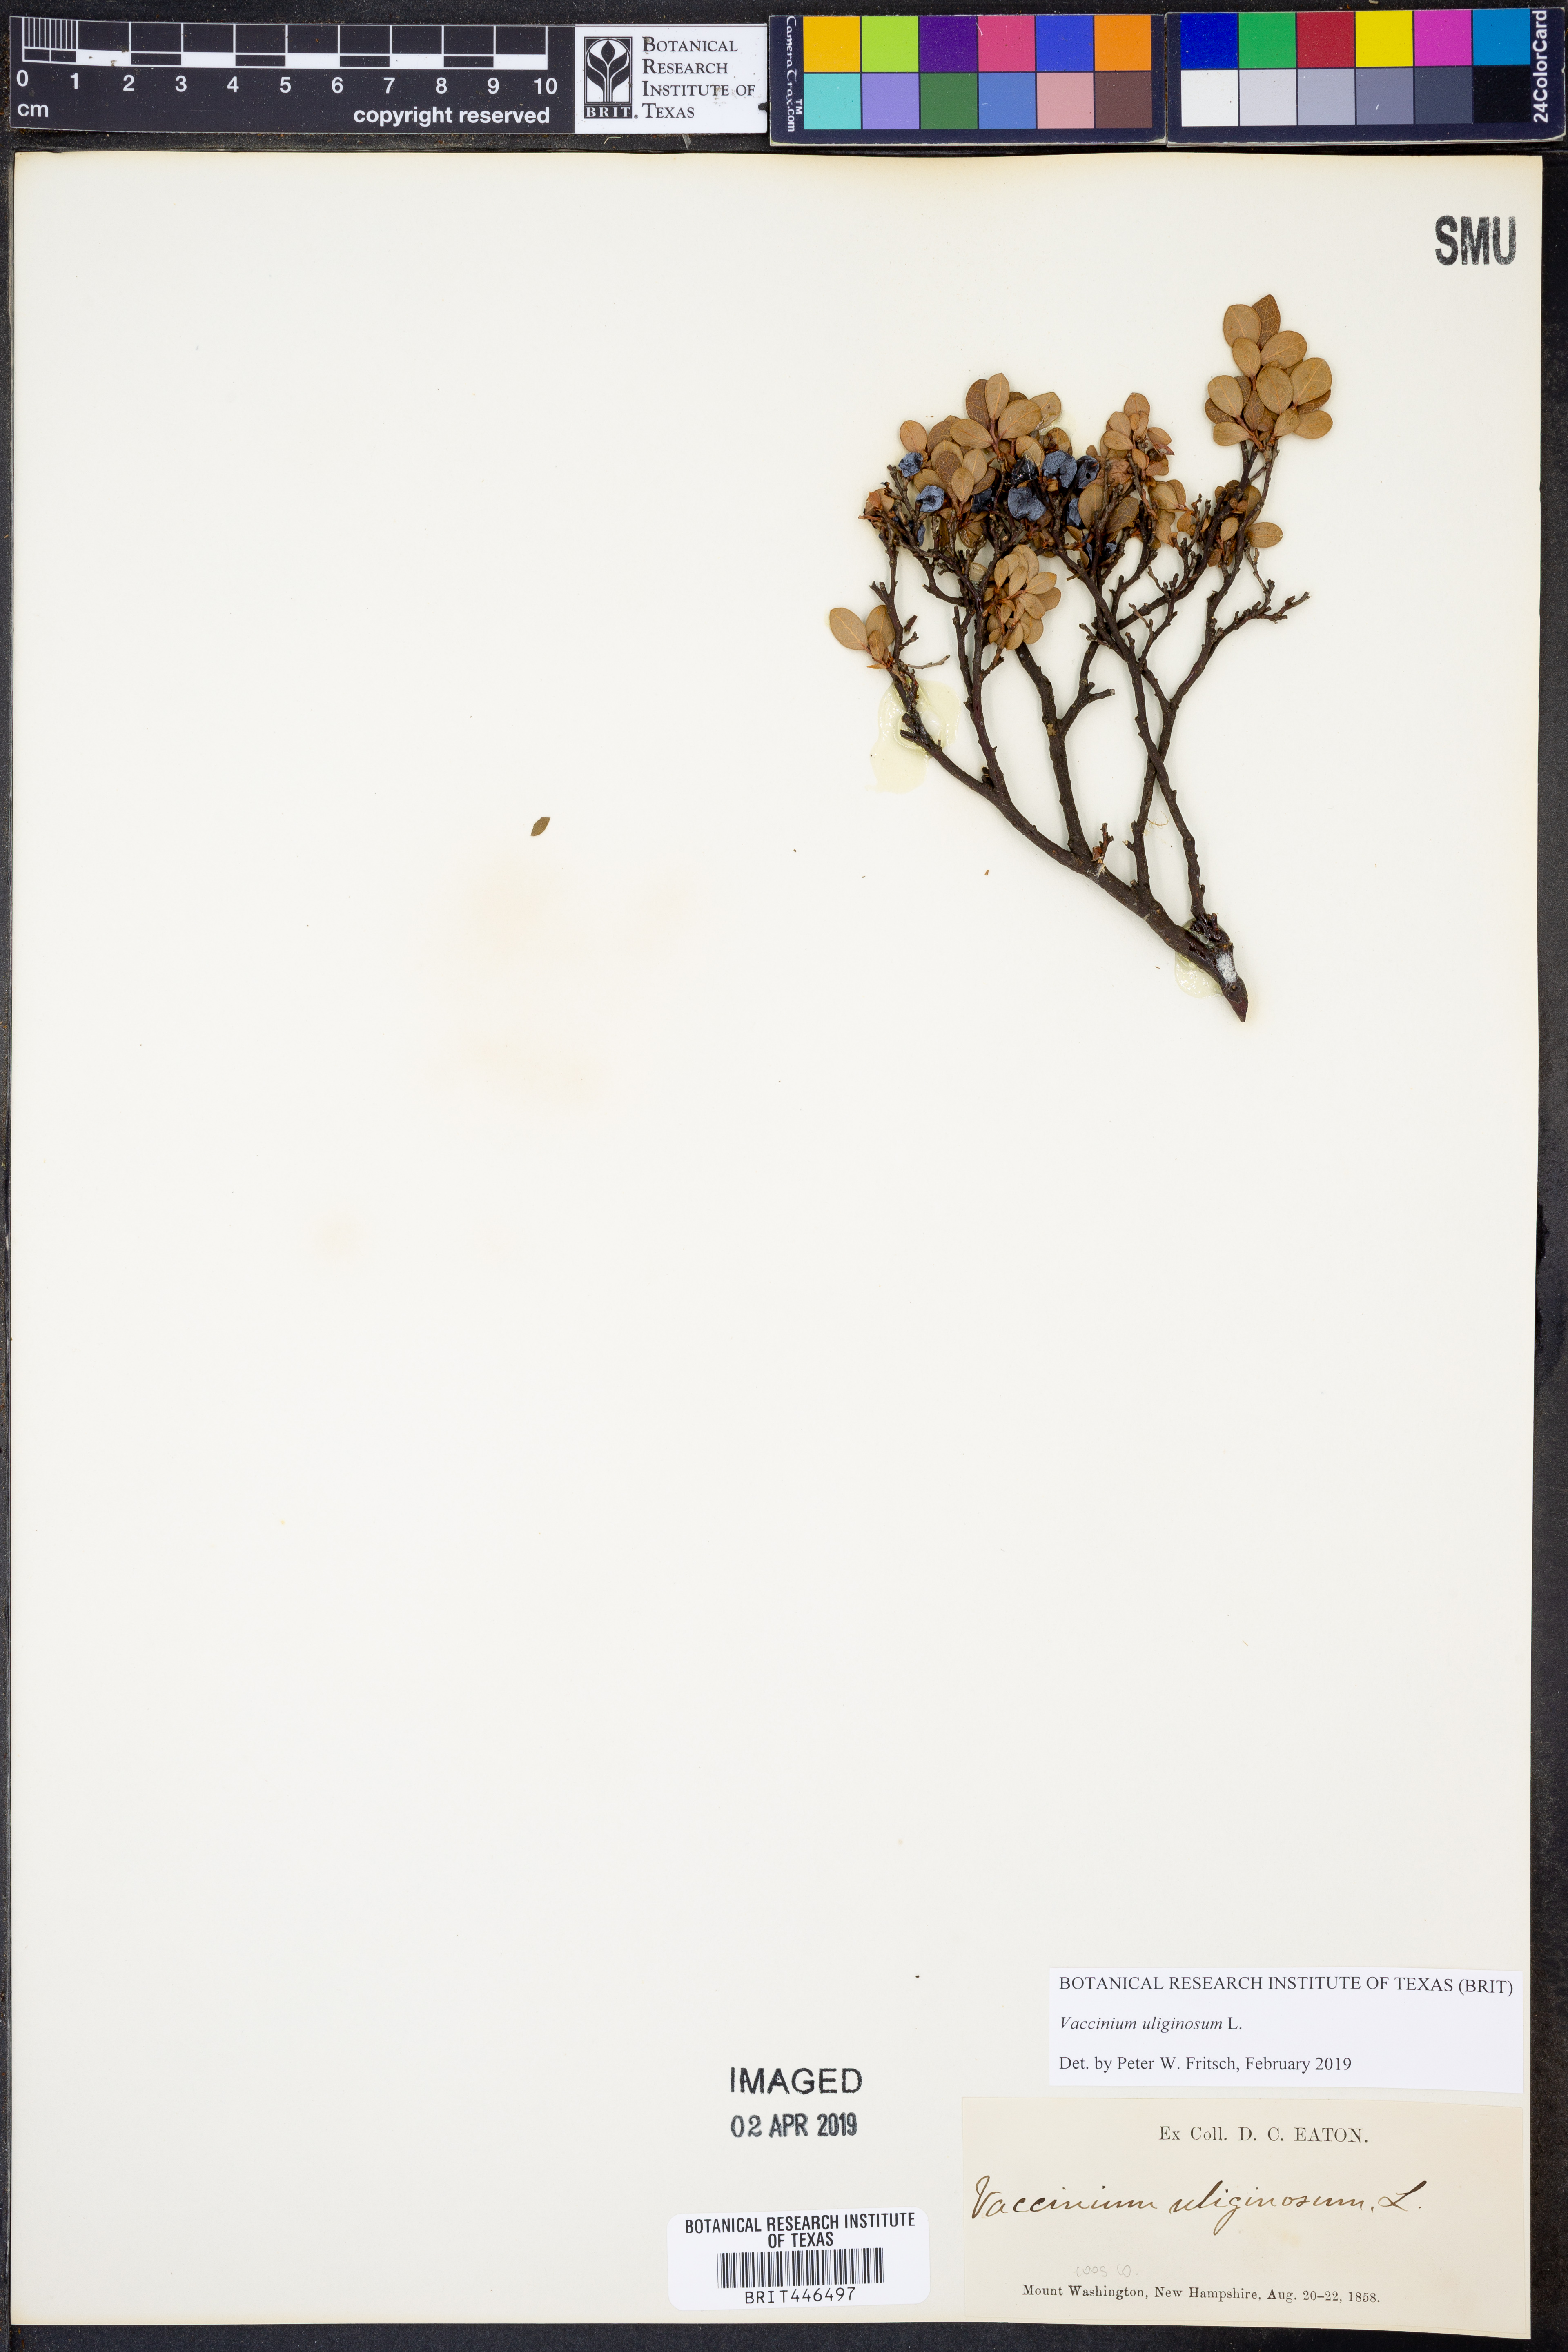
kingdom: Plantae
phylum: Tracheophyta
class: Magnoliopsida
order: Ericales
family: Ericaceae
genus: Vaccinium
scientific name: Vaccinium uliginosum
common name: Bog bilberry
